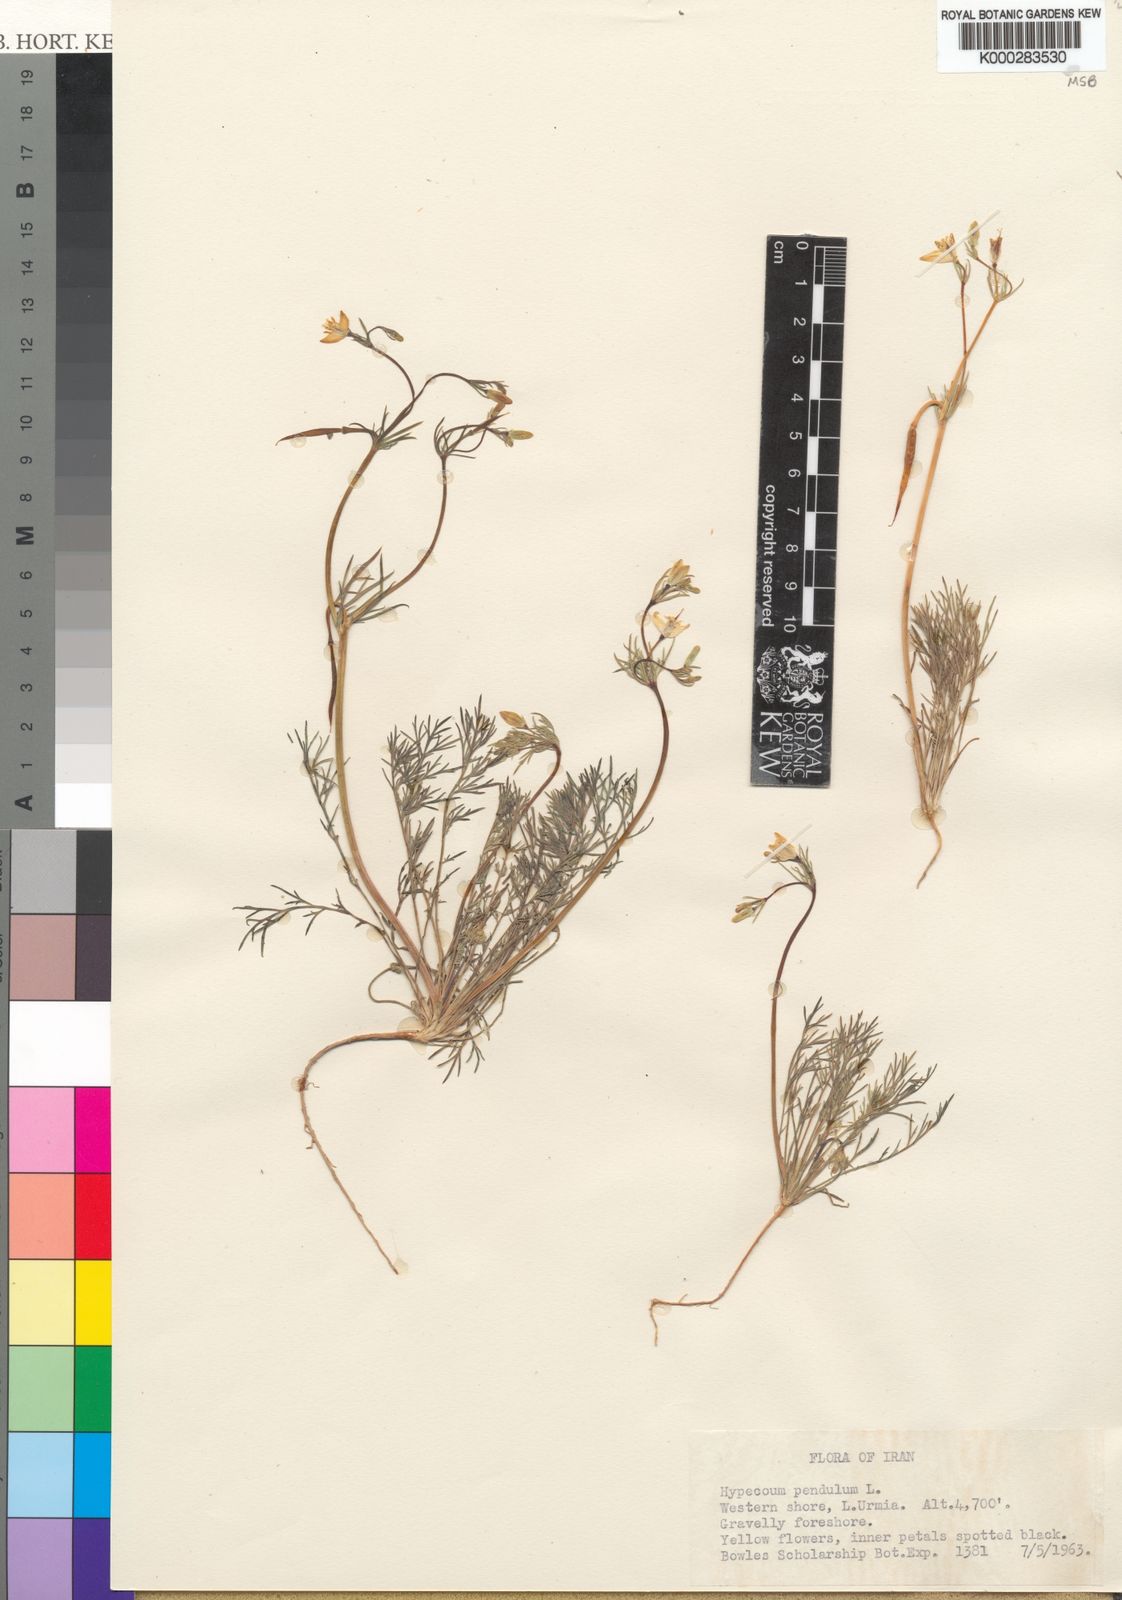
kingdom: Plantae
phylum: Tracheophyta
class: Magnoliopsida
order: Ranunculales
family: Papaveraceae
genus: Hypecoum
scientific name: Hypecoum pendulum
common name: Nodding hypecoum
